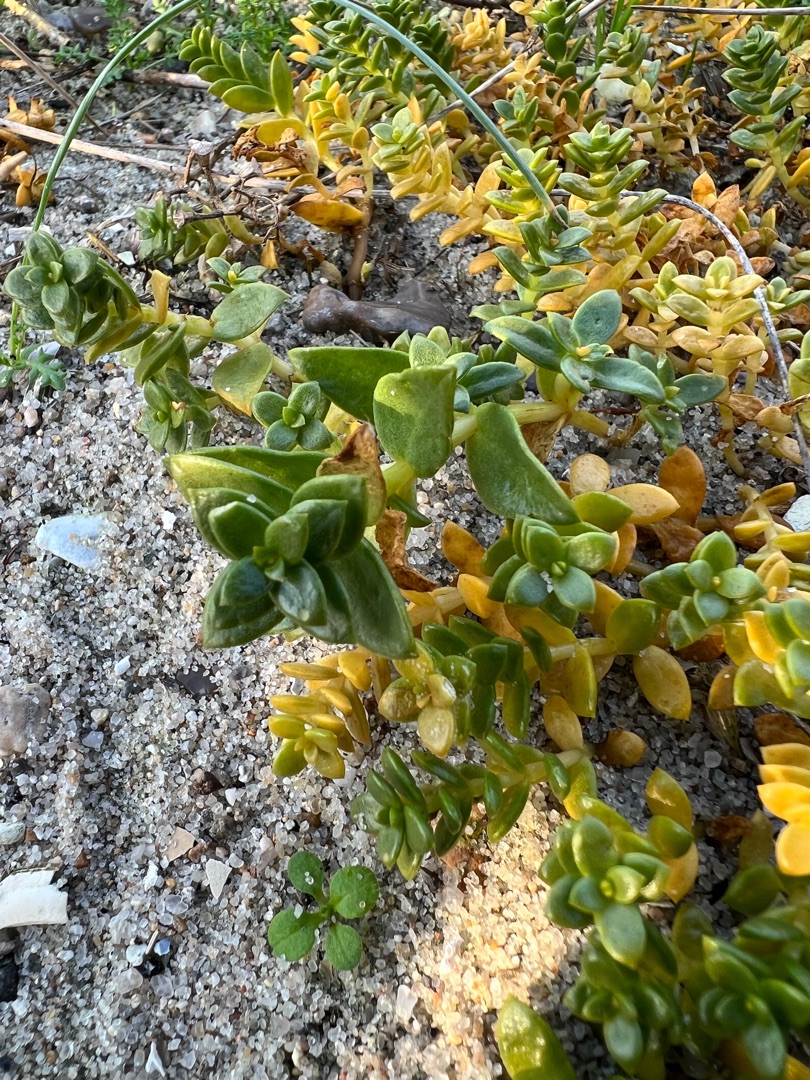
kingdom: Plantae
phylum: Tracheophyta
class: Magnoliopsida
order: Caryophyllales
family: Caryophyllaceae
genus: Honckenya
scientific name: Honckenya peploides
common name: Strandarve
